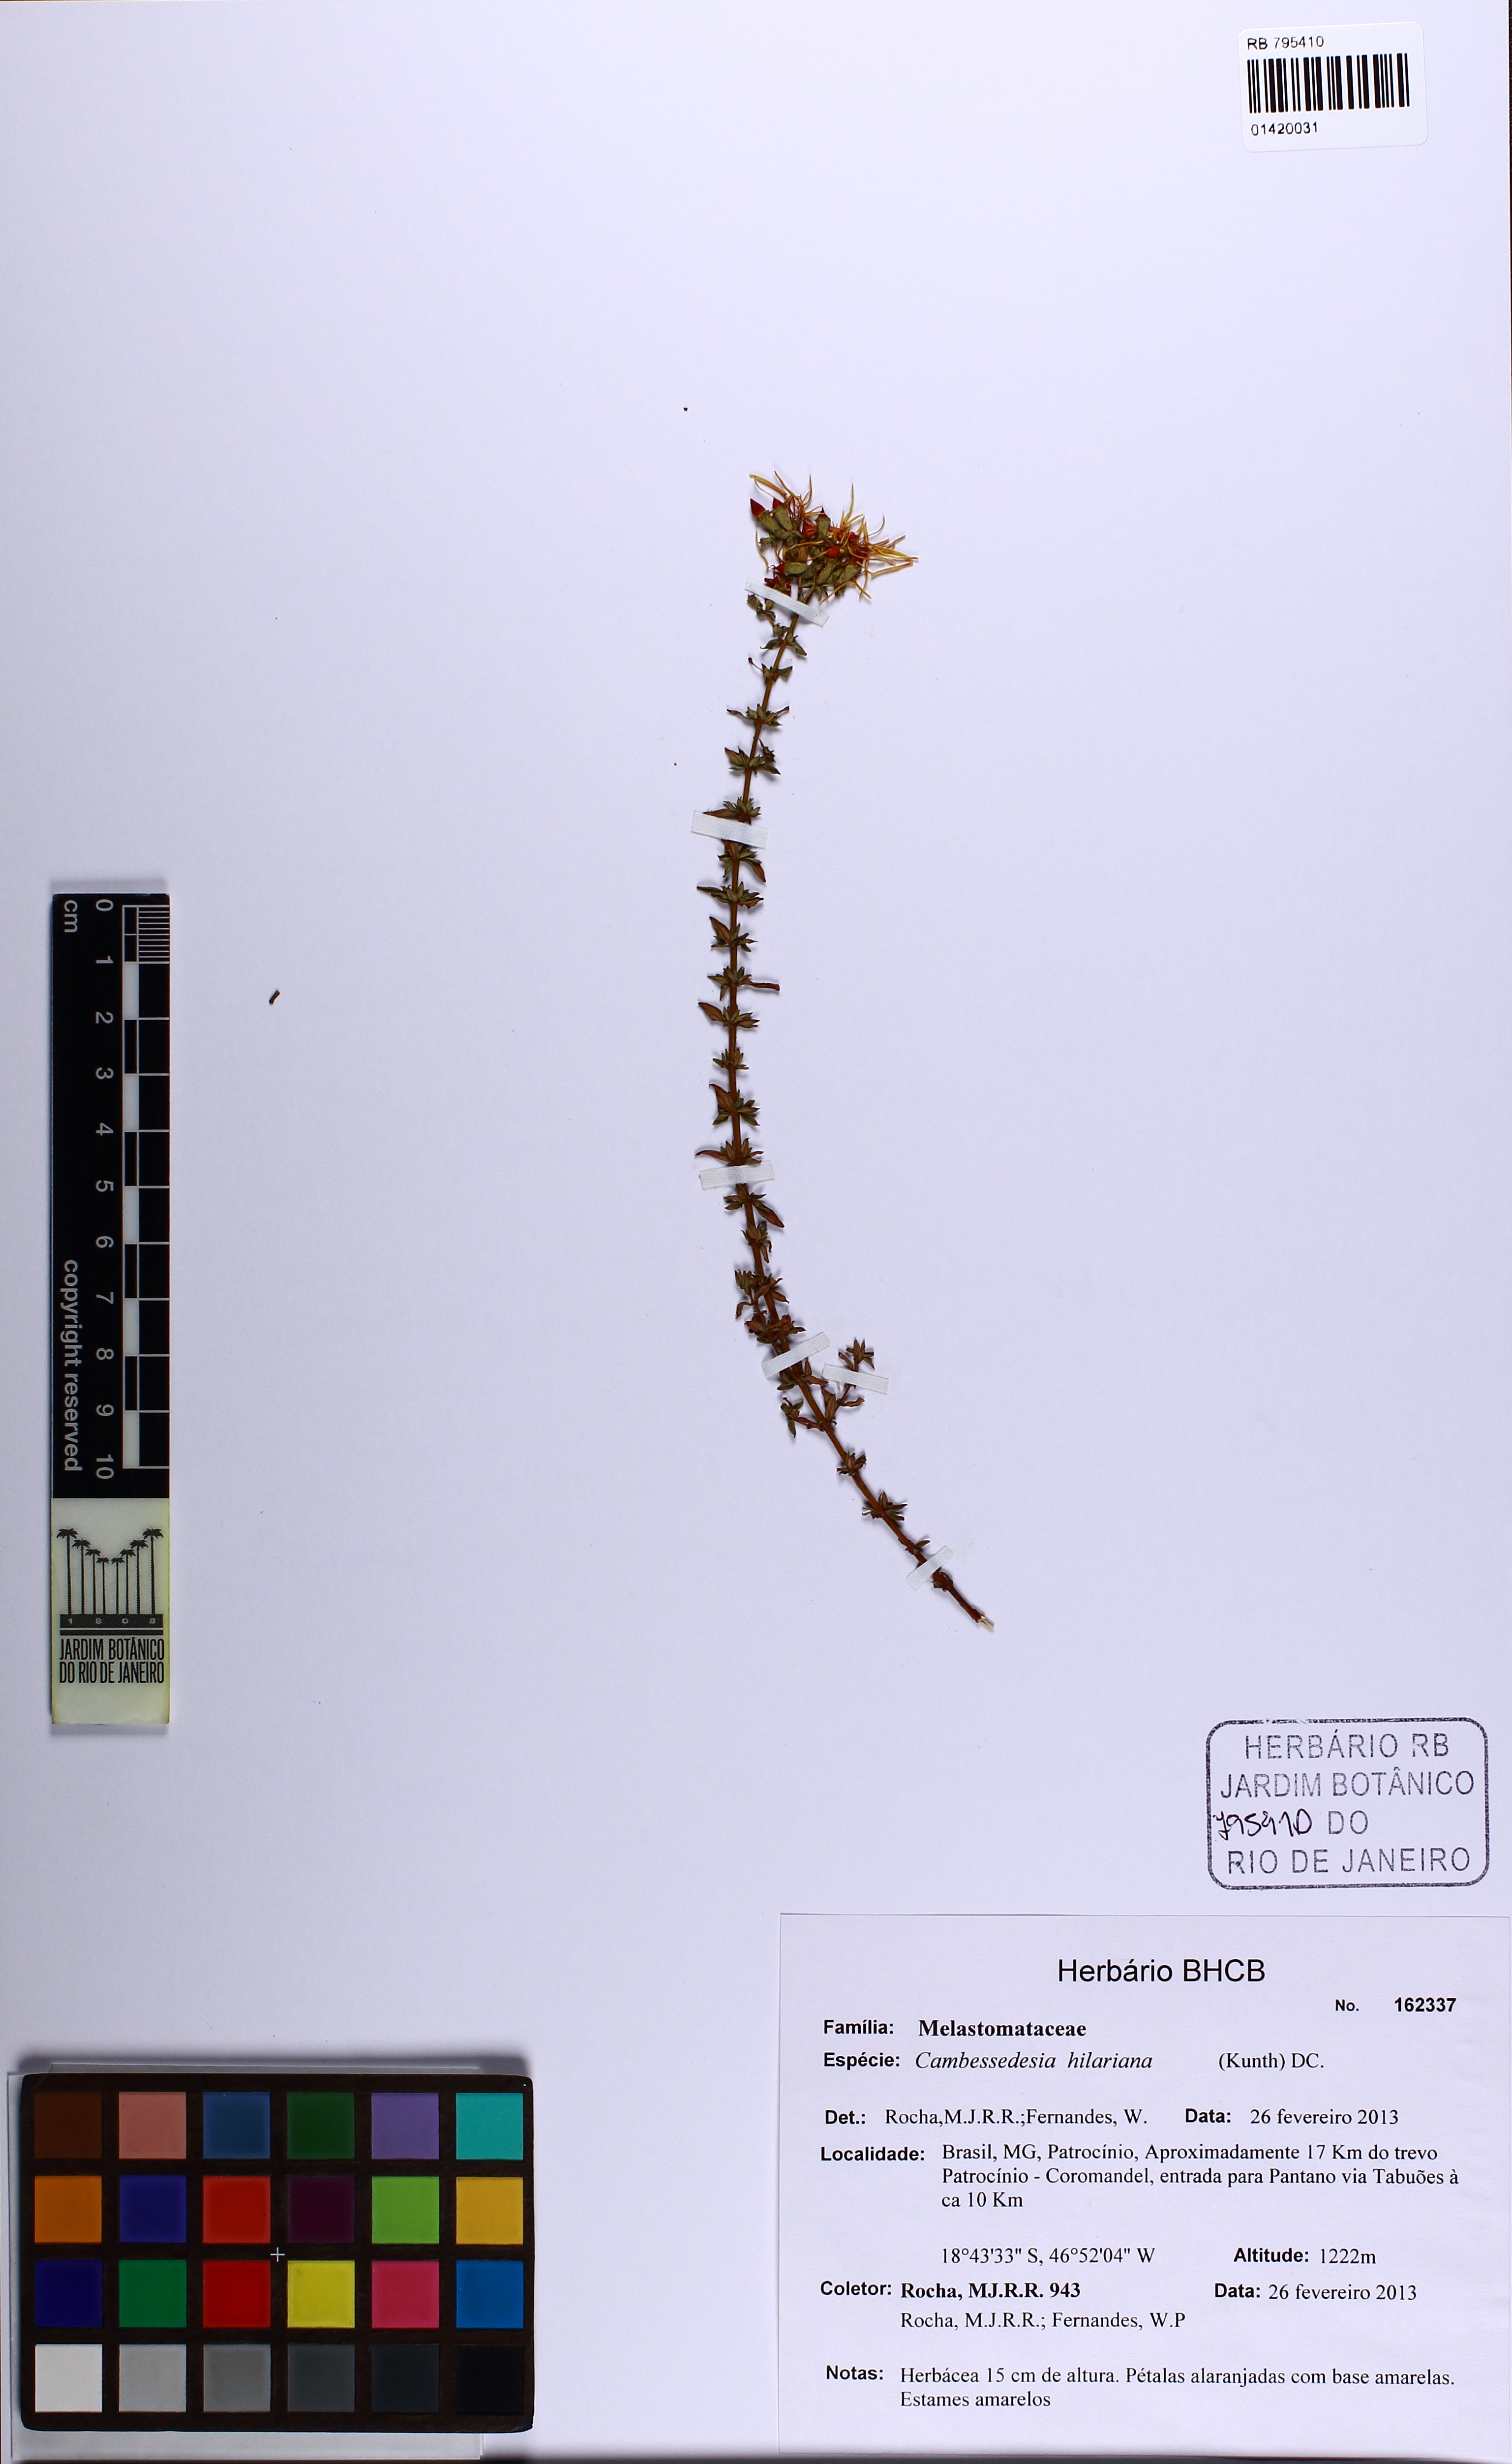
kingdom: Plantae
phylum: Tracheophyta
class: Magnoliopsida
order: Myrtales
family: Melastomataceae
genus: Cambessedesia
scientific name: Cambessedesia hilariana
